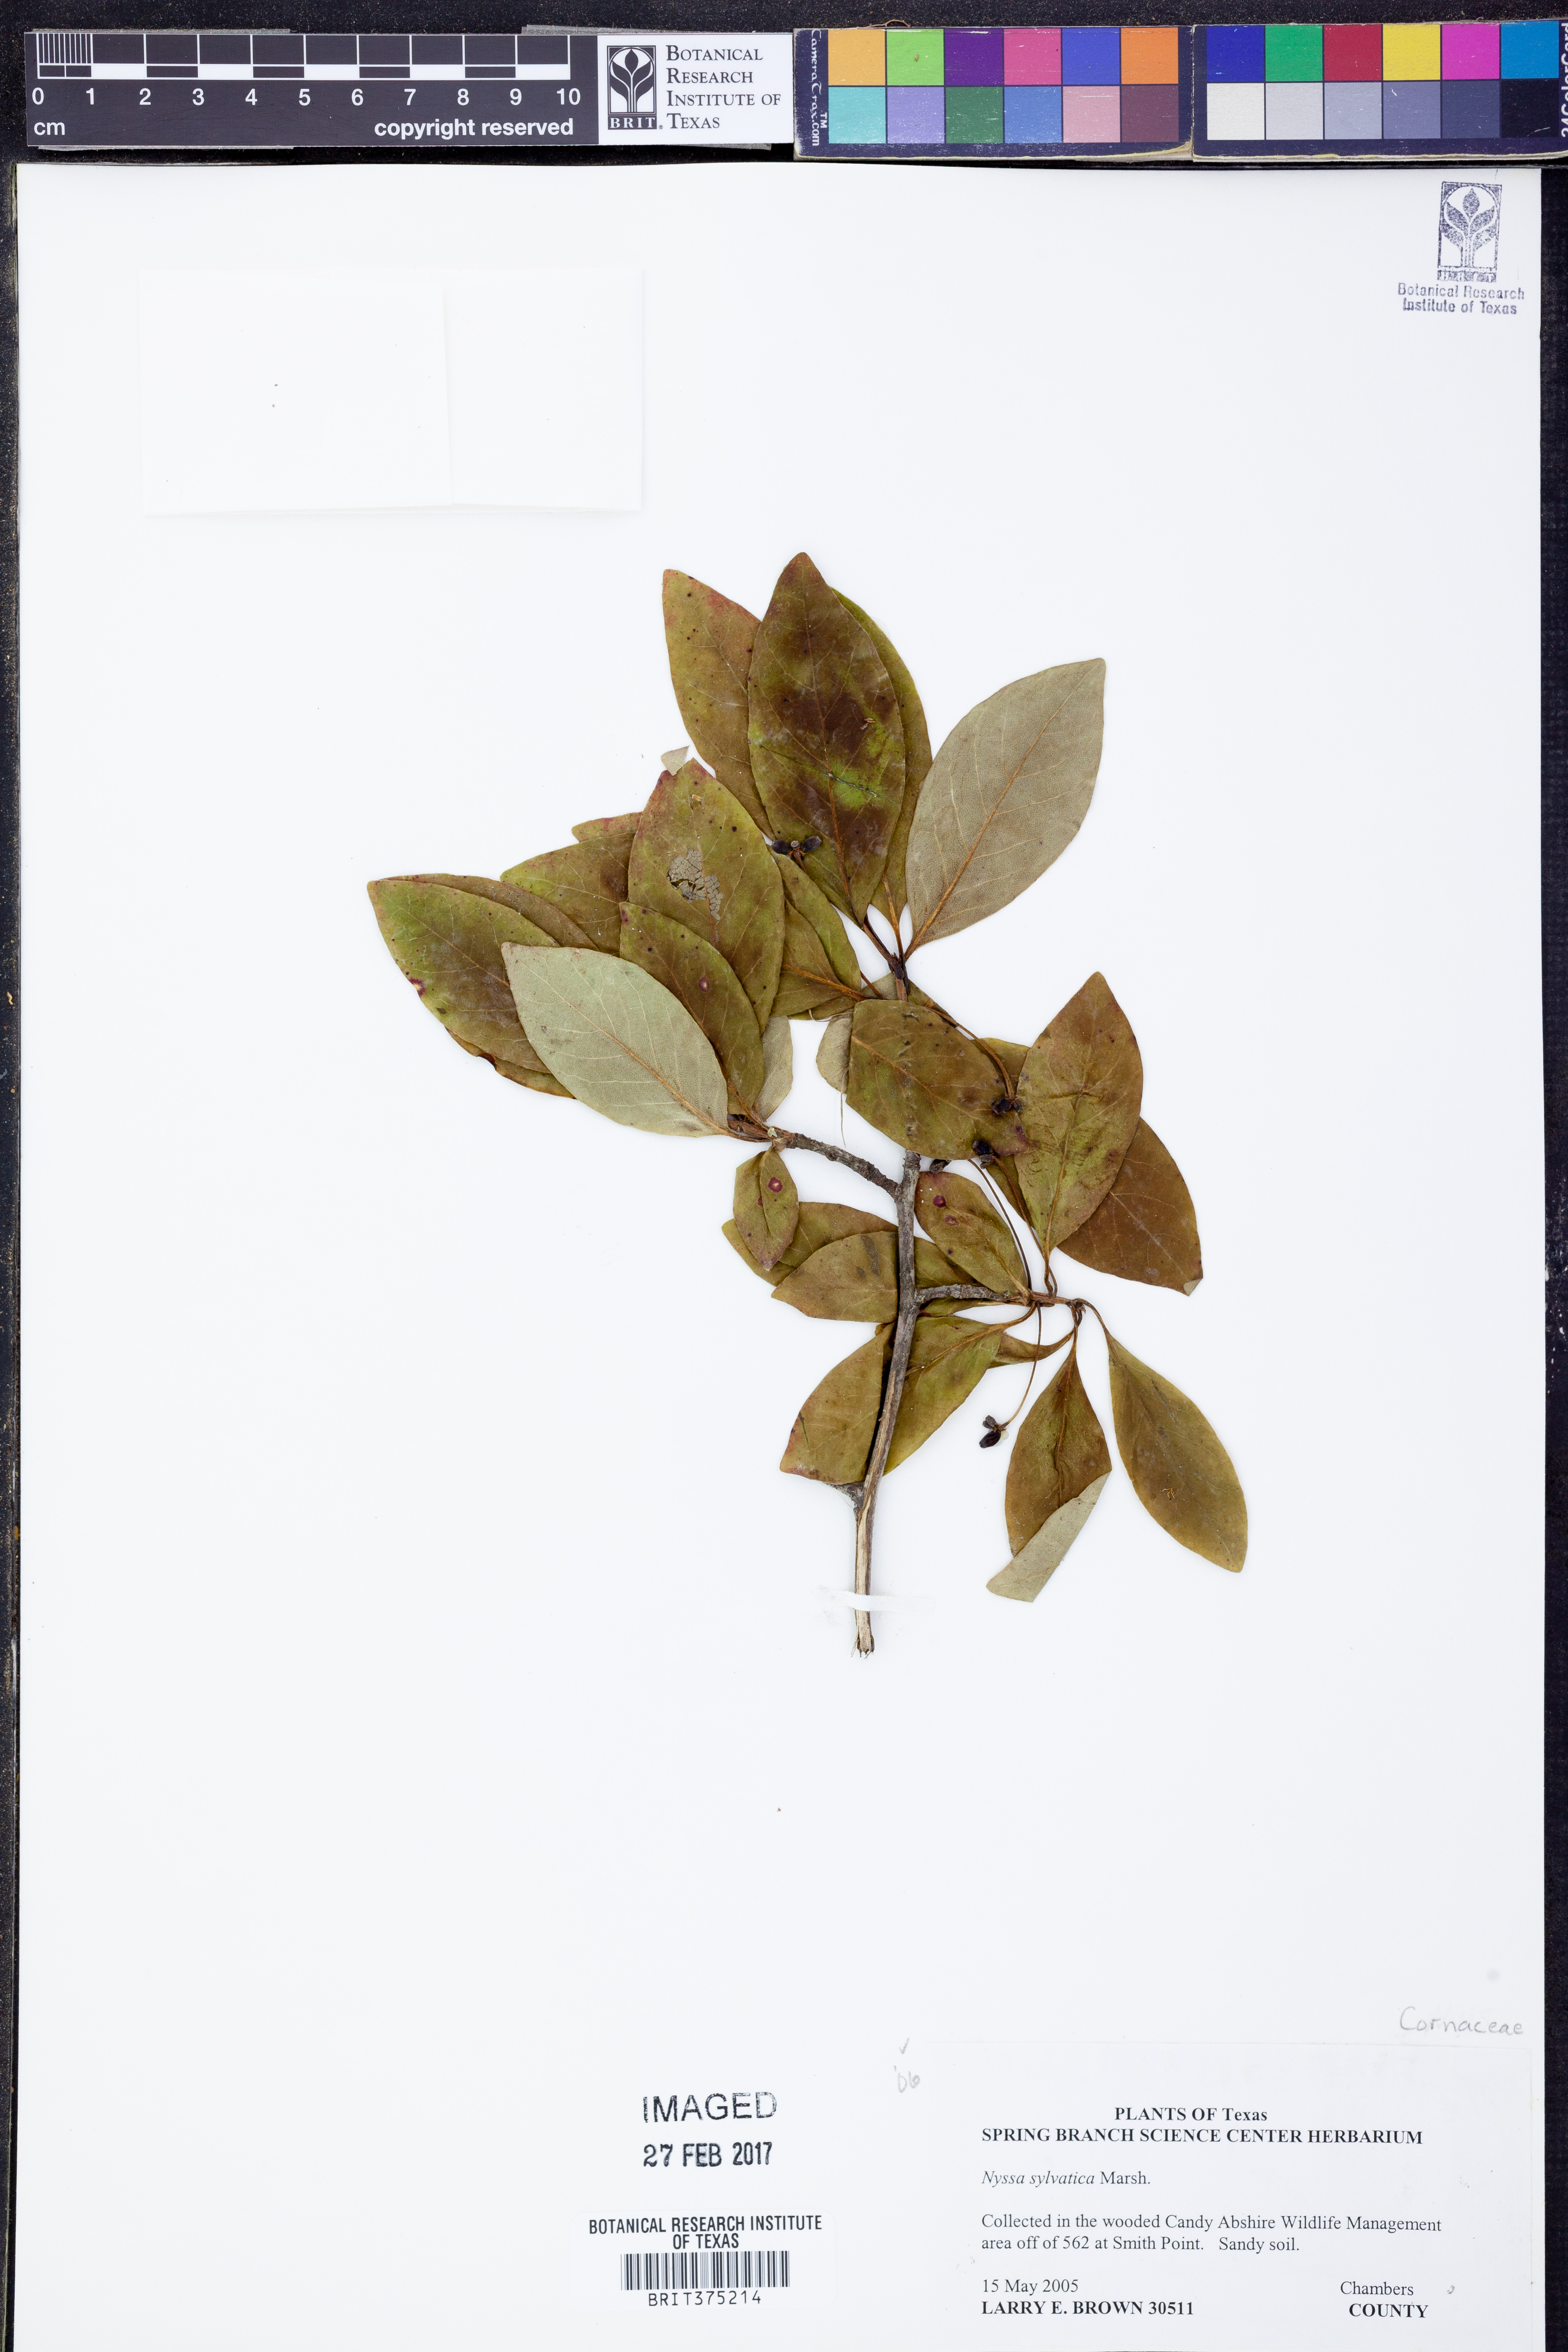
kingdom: Plantae
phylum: Tracheophyta
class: Magnoliopsida
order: Cornales
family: Nyssaceae
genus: Nyssa
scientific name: Nyssa sylvatica
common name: Black tupelo
